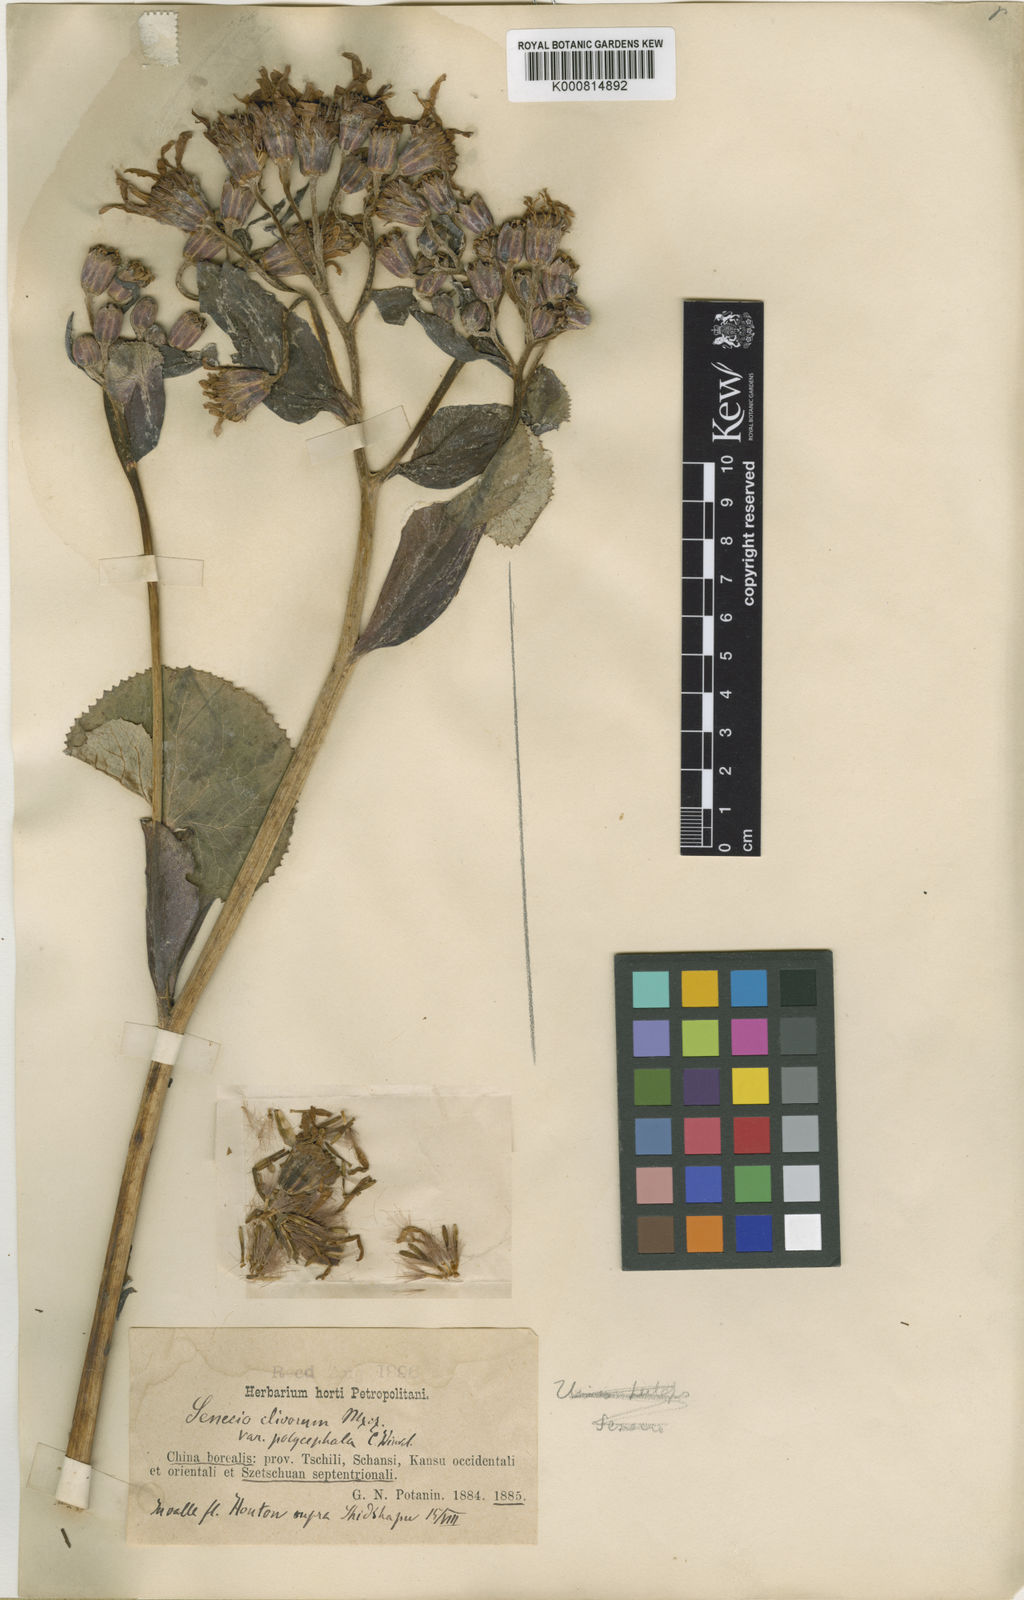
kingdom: Plantae
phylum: Tracheophyta
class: Magnoliopsida
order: Asterales
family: Asteraceae
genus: Ligularia
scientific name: Ligularia dentata
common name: Leopardplant
